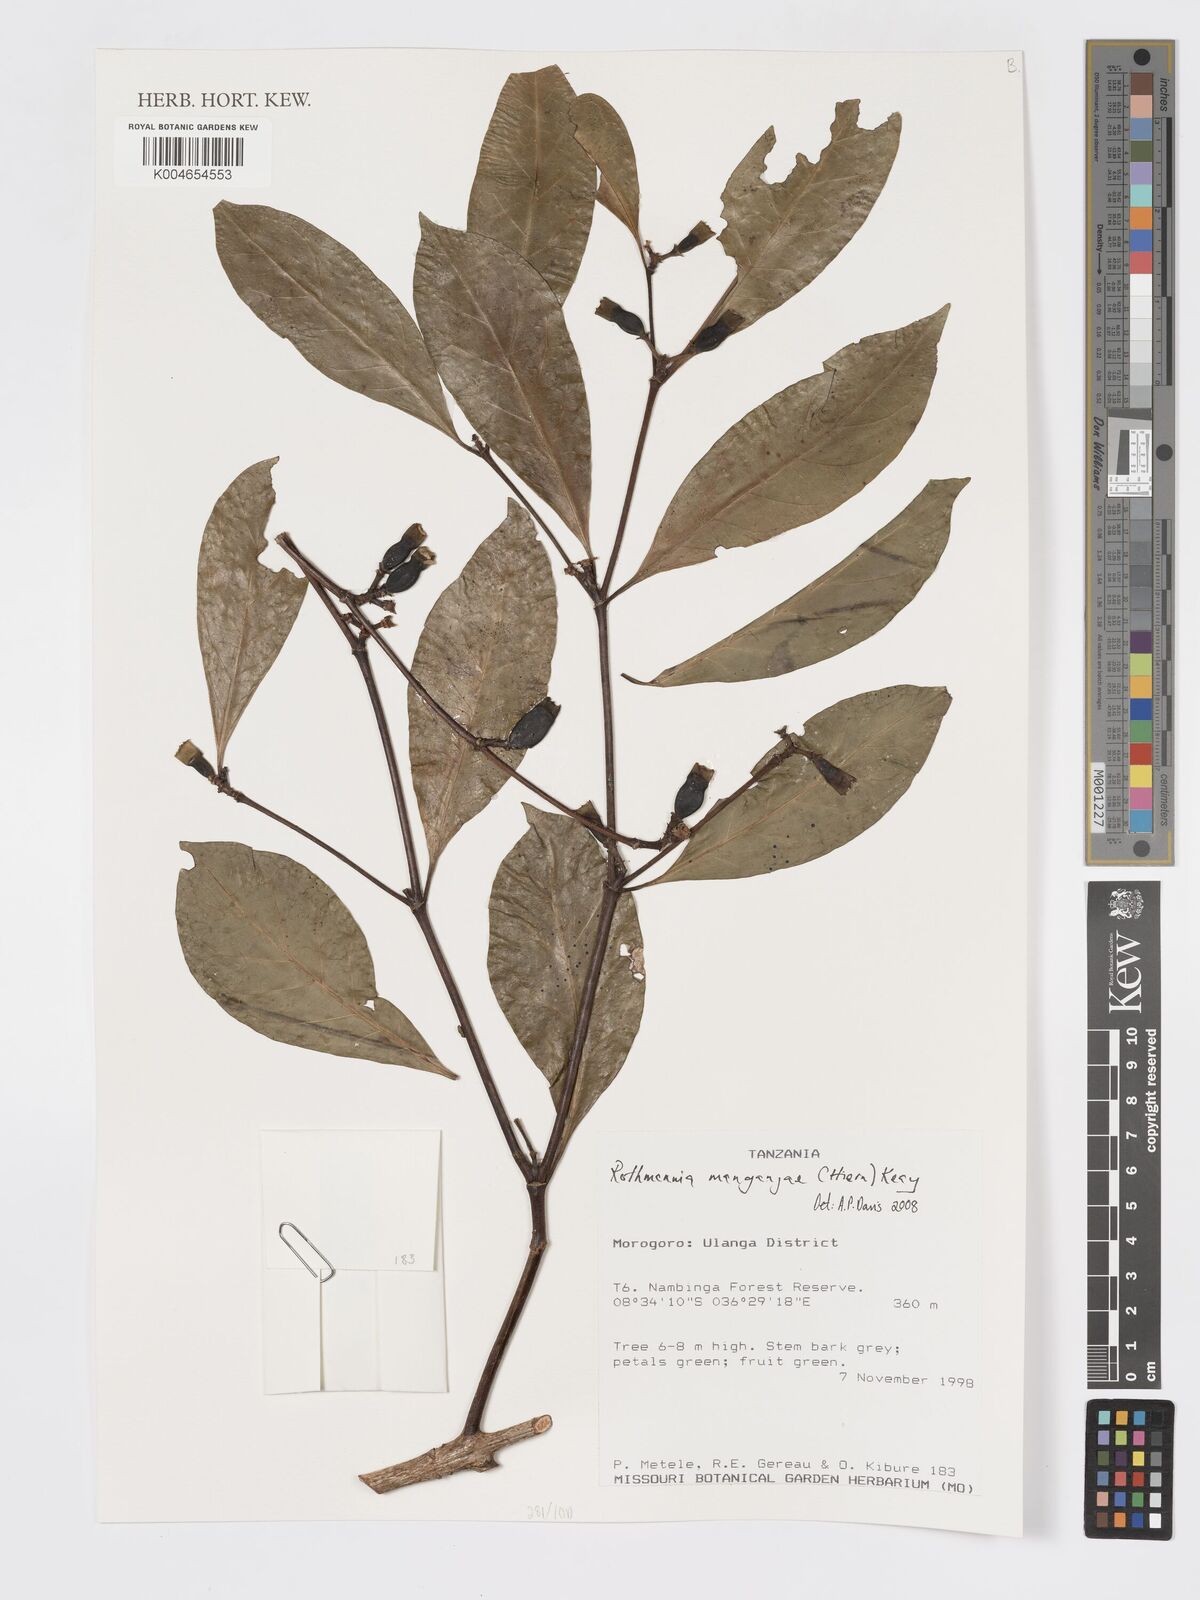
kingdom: Plantae
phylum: Tracheophyta
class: Magnoliopsida
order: Gentianales
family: Rubiaceae
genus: Rothmannia
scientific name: Rothmannia manganjae
